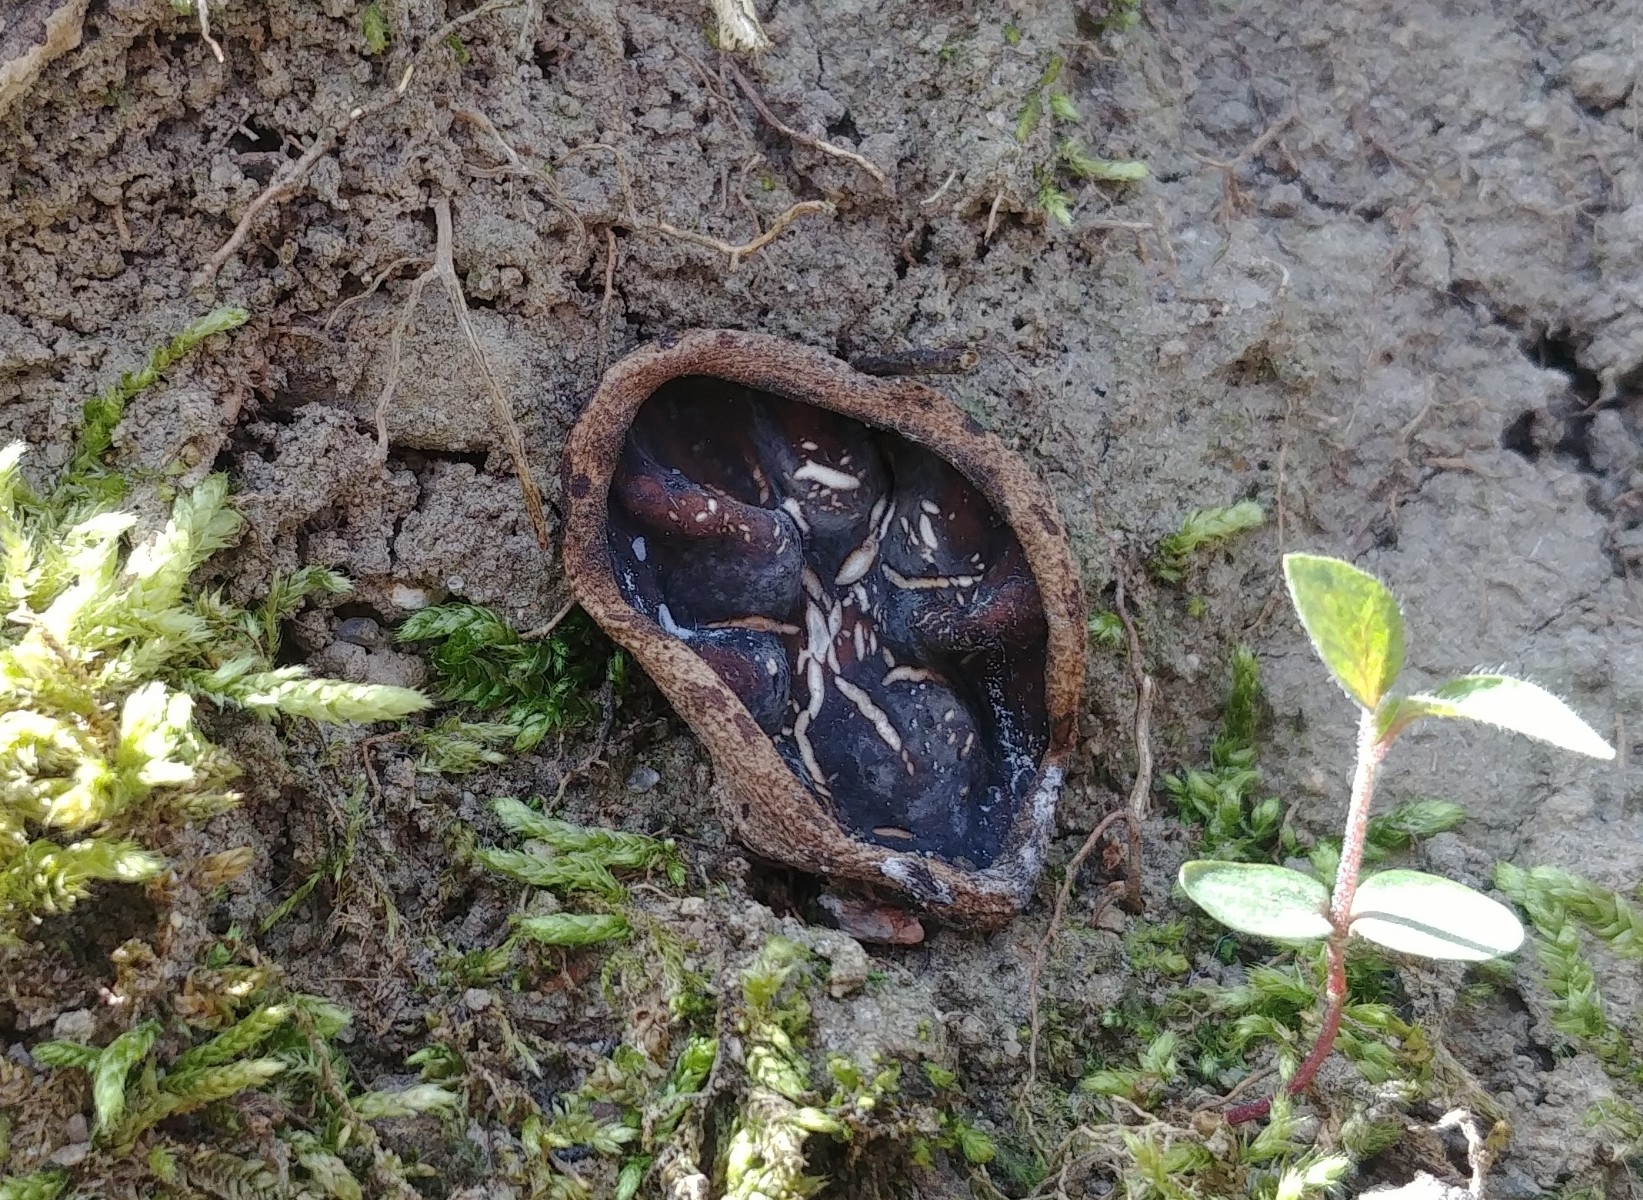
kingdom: Fungi
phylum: Ascomycota
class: Pezizomycetes
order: Pezizales
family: Morchellaceae
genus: Disciotis
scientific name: Disciotis venosa
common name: klor-bægermorkel
